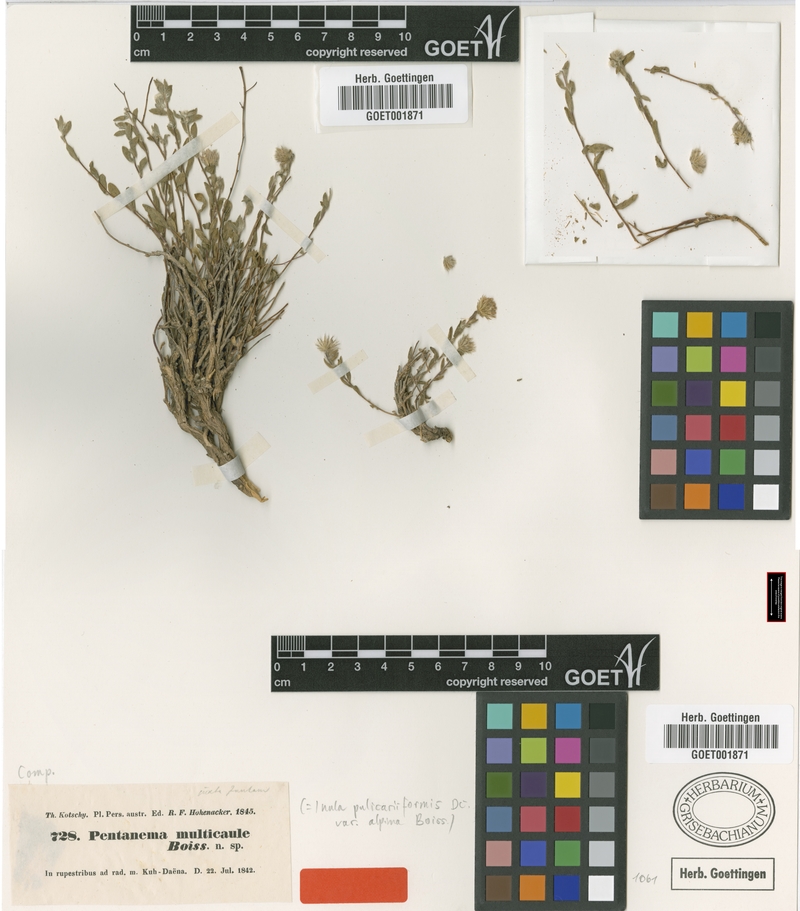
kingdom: Plantae
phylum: Tracheophyta
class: Magnoliopsida
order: Asterales
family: Asteraceae
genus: Vicoa
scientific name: Vicoa multicaulis
